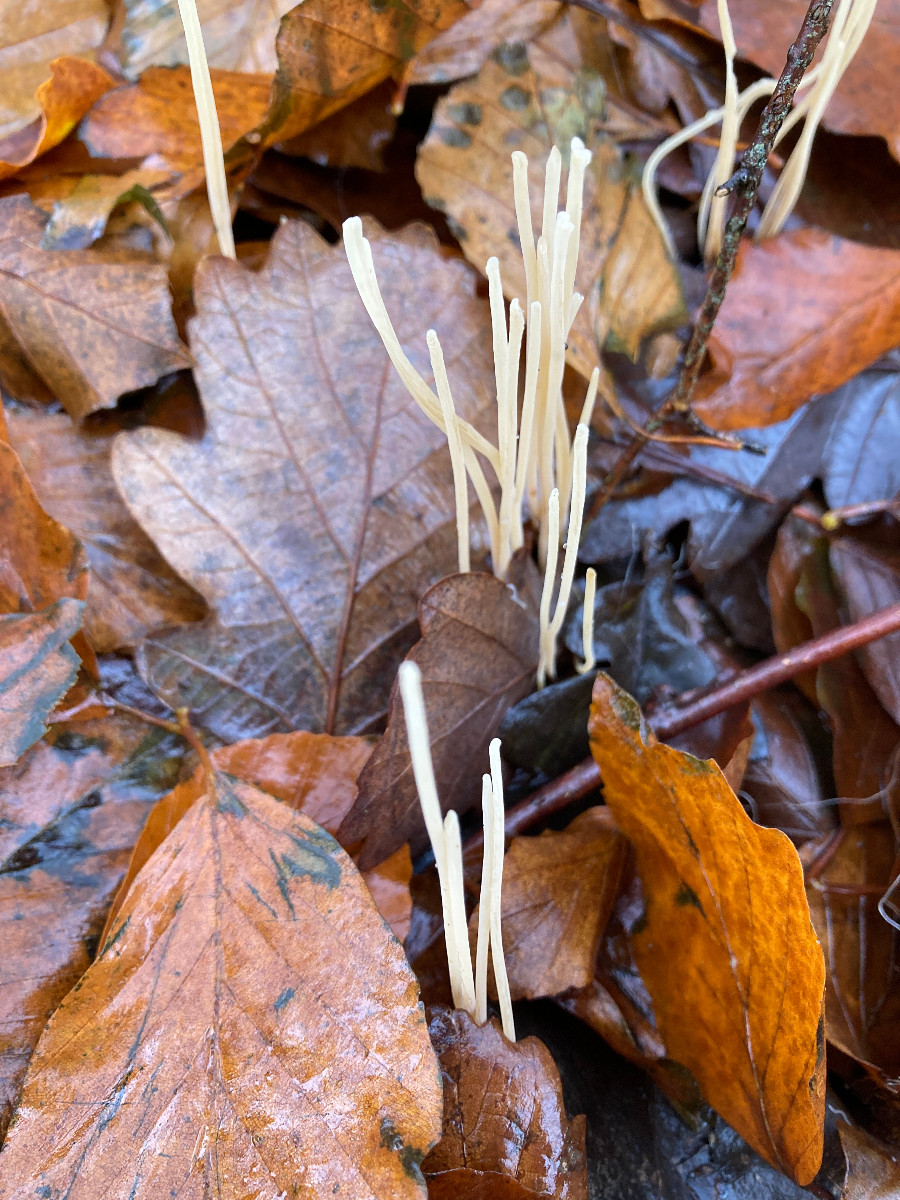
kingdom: Fungi
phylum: Basidiomycota
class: Agaricomycetes
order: Agaricales
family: Typhulaceae
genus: Macrotyphula
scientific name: Macrotyphula
